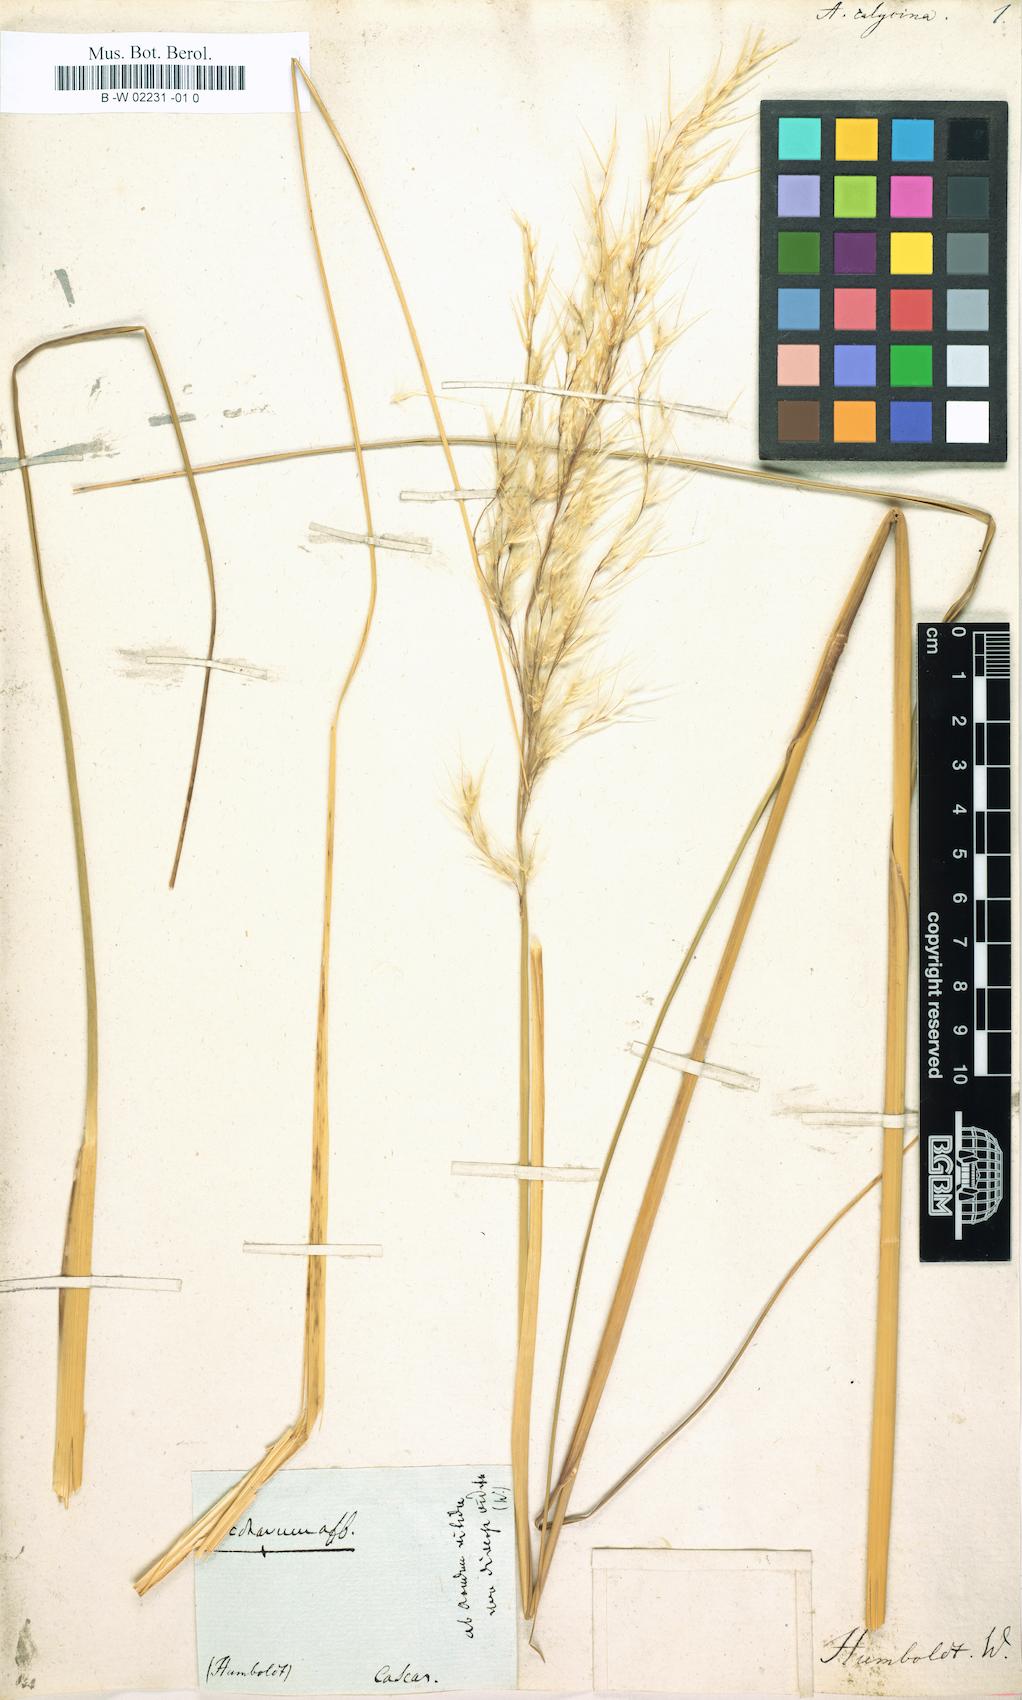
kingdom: Plantae
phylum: Tracheophyta
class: Liliopsida
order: Poales
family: Poaceae
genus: Cortaderia
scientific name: Cortaderia nitida
